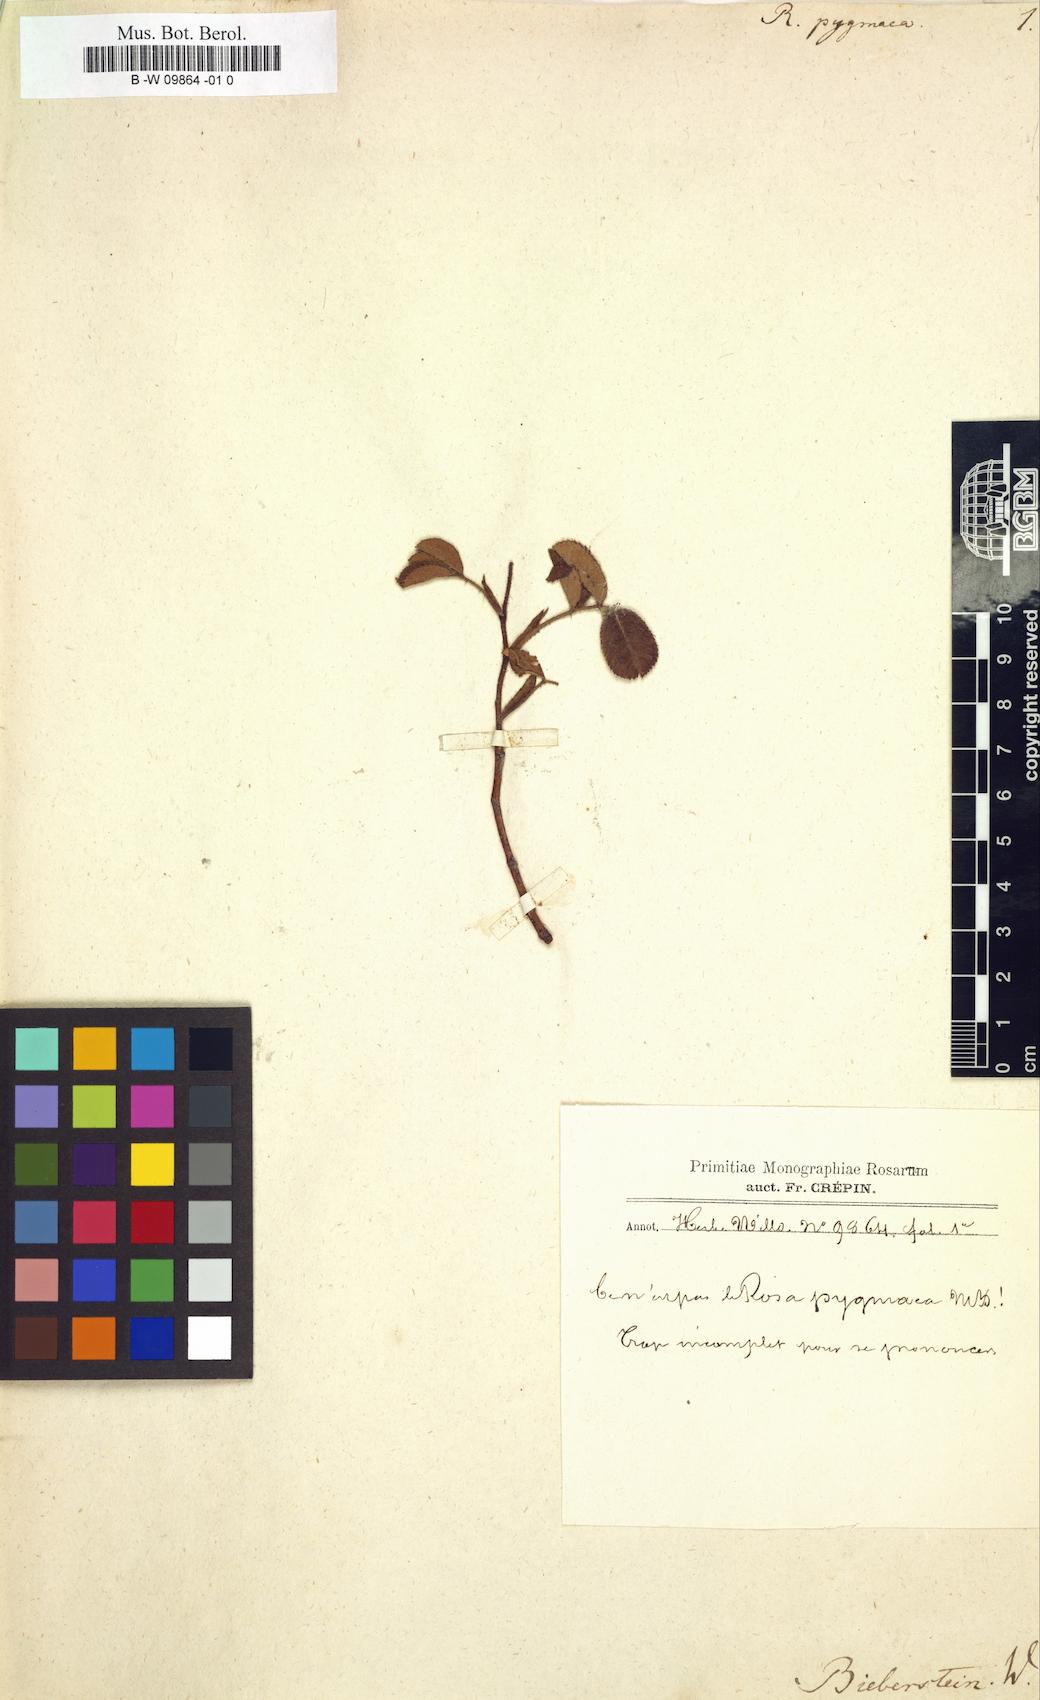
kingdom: Plantae
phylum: Tracheophyta
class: Magnoliopsida
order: Rosales
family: Rosaceae
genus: Rosa
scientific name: Rosa gallica
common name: French rose
